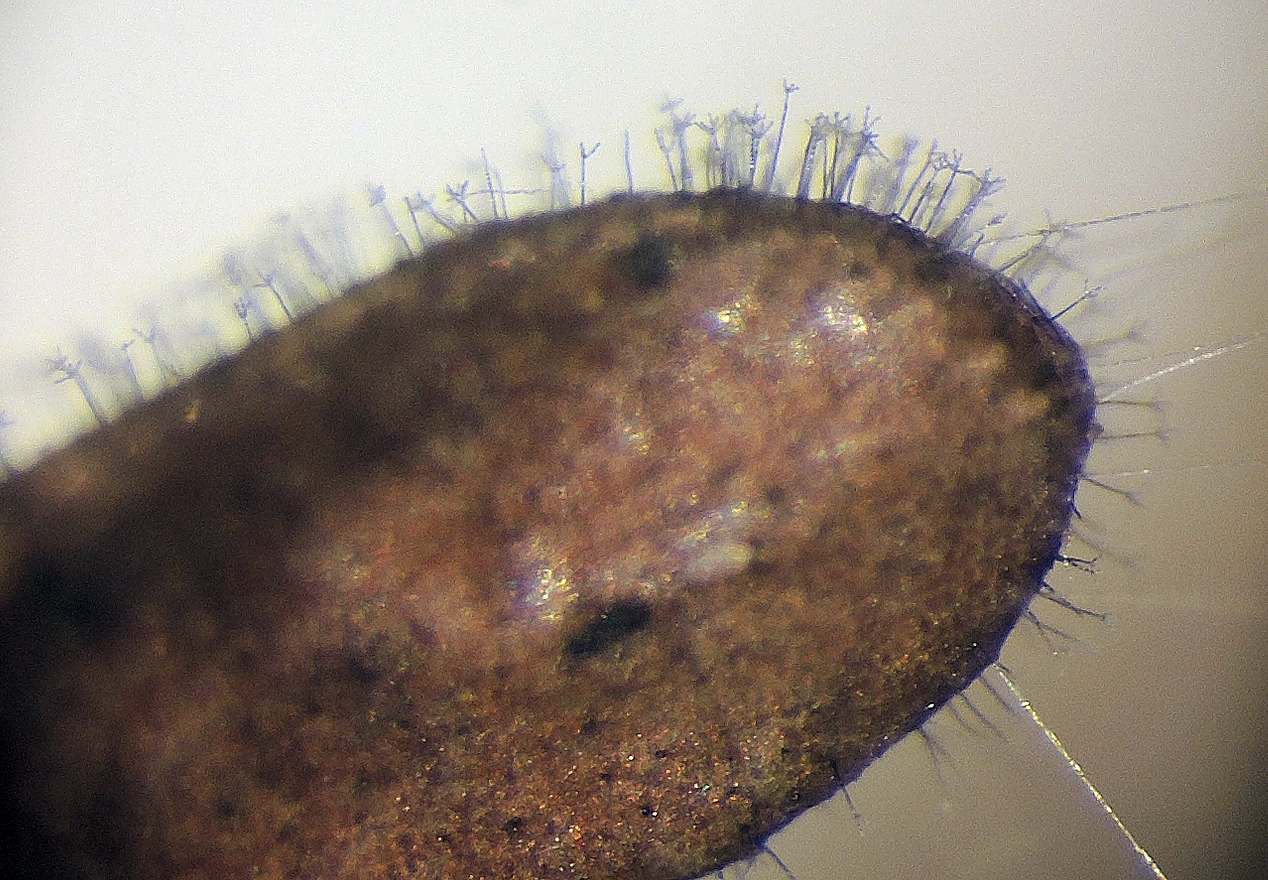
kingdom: Fungi
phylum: Ascomycota
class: Dothideomycetes
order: Capnodiales
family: Cladosporiaceae
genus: Cladosporium
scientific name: Cladosporium
